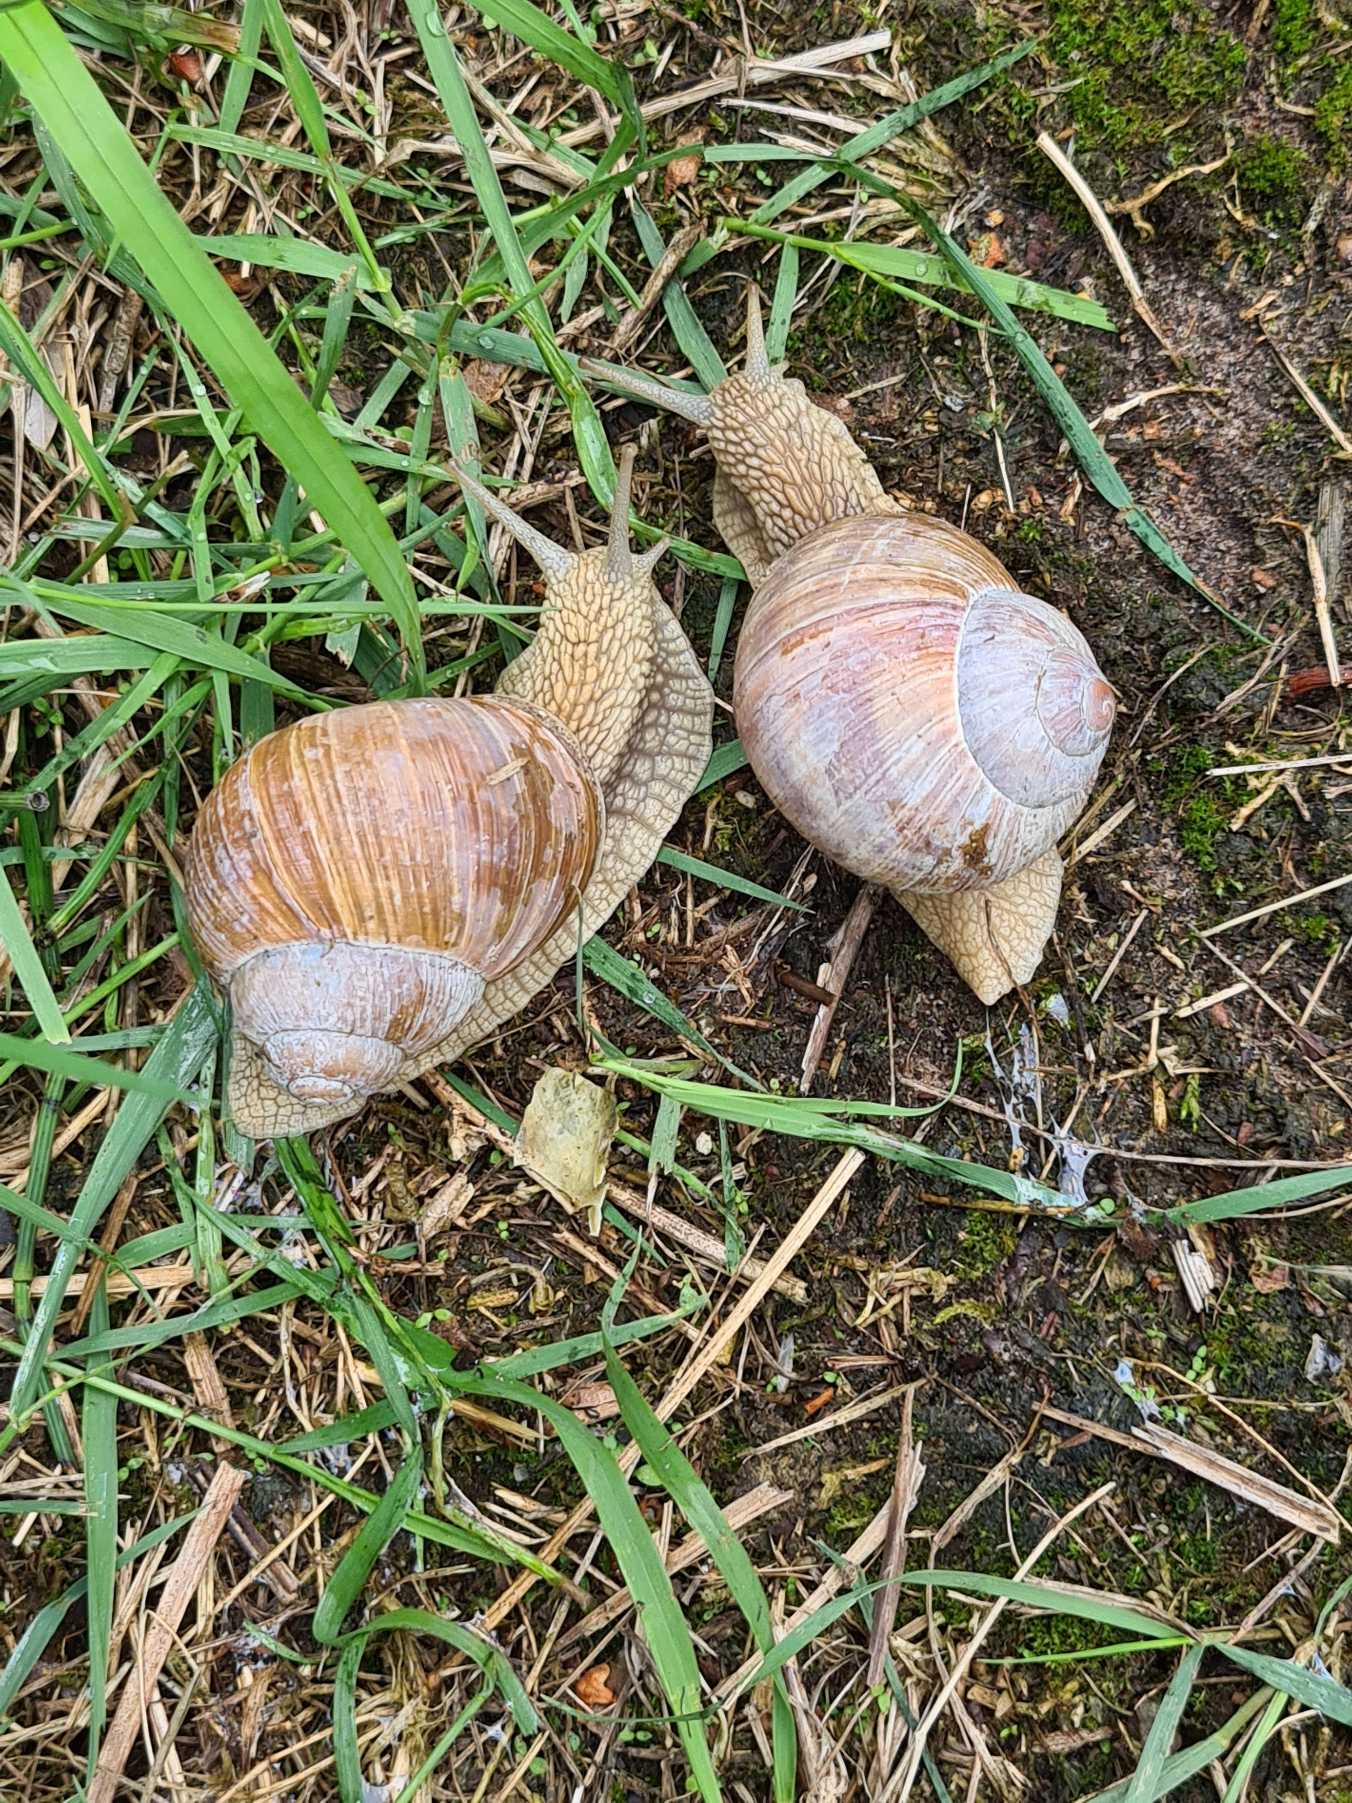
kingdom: Animalia
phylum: Mollusca
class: Gastropoda
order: Stylommatophora
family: Helicidae
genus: Helix
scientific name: Helix pomatia
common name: Vinbjergsnegl
